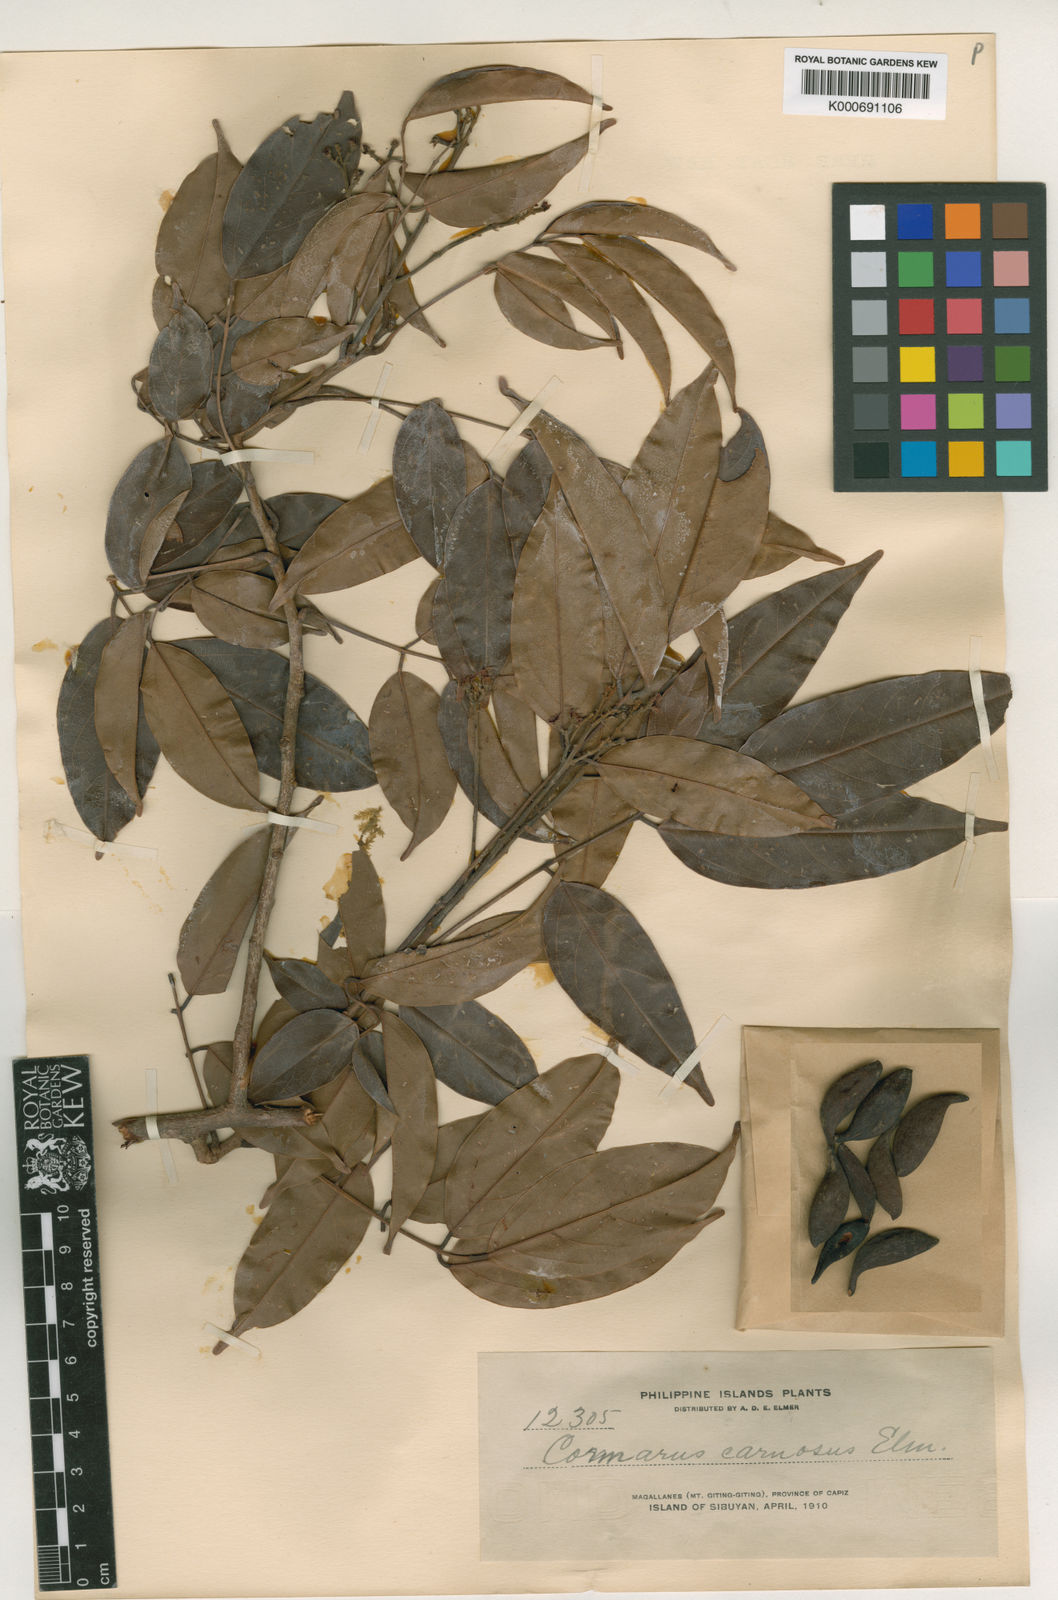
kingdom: Plantae
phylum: Tracheophyta
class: Magnoliopsida
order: Oxalidales
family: Connaraceae
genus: Connarus
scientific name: Connarus semidecandrus
